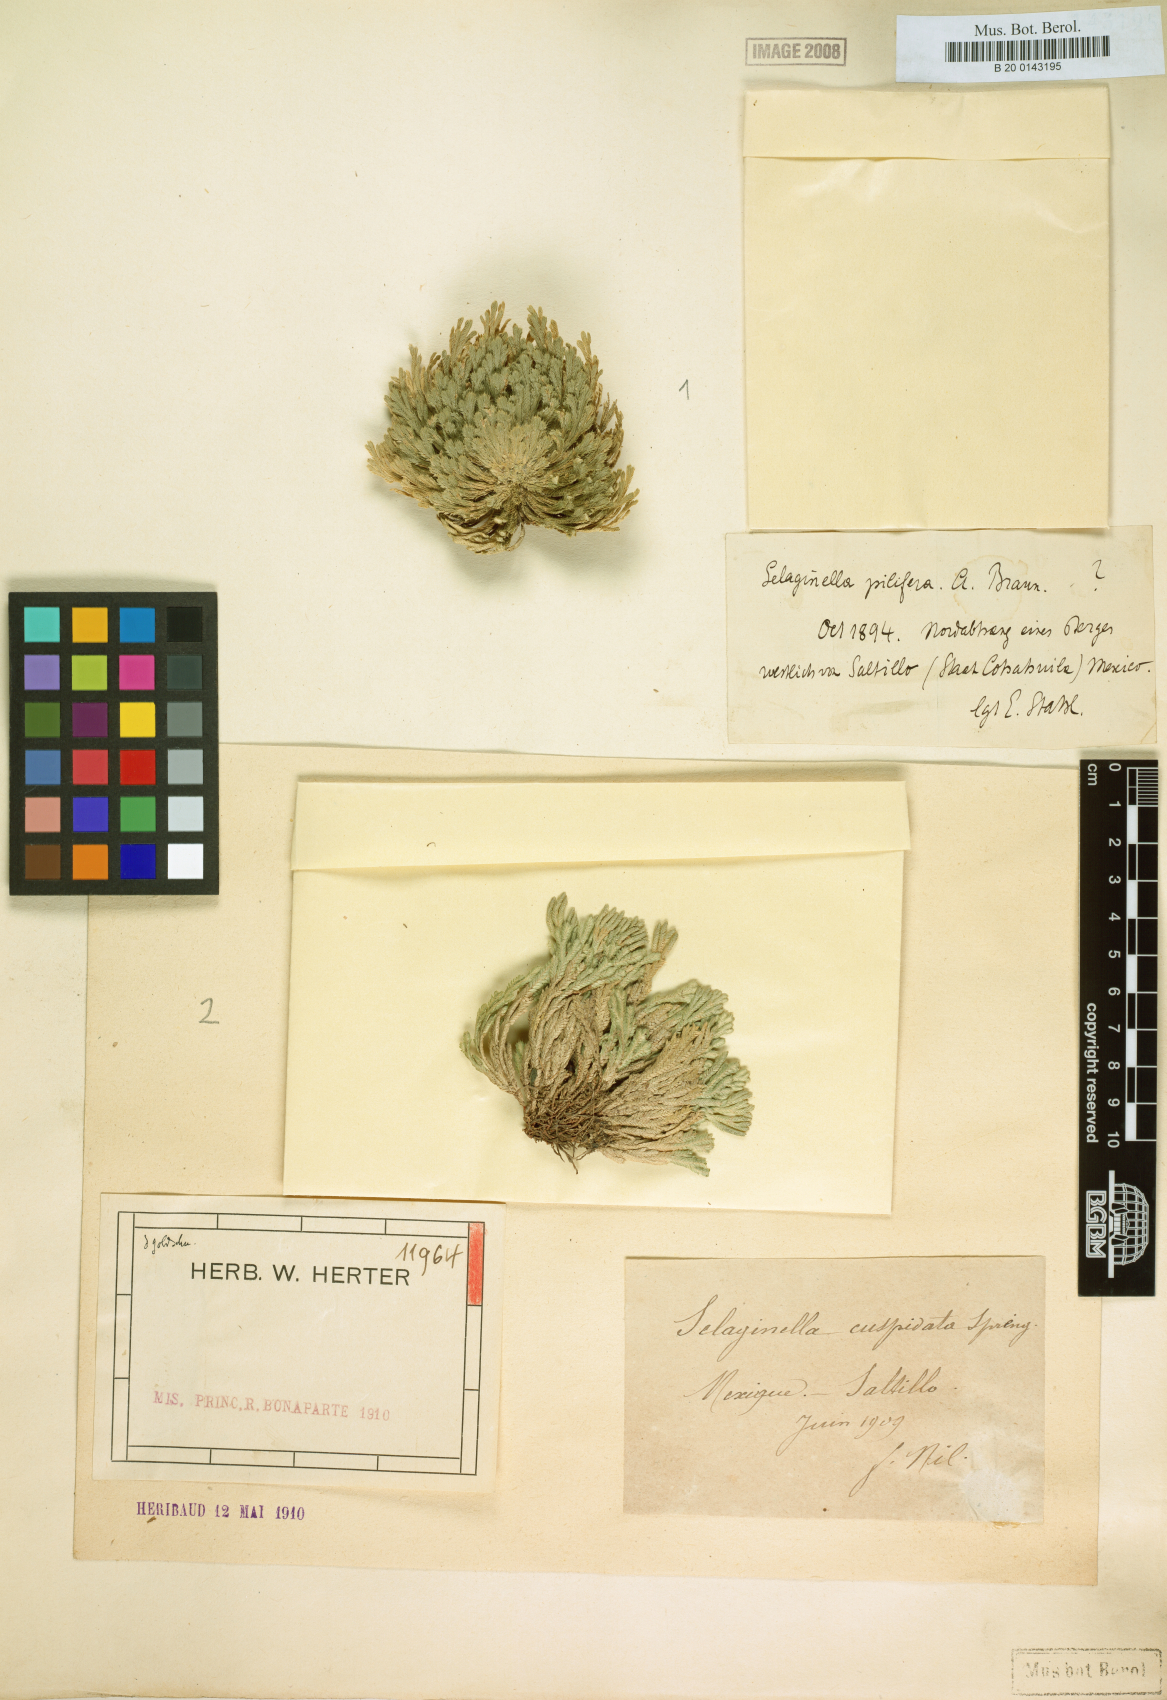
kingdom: Plantae
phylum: Tracheophyta
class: Lycopodiopsida
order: Selaginellales
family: Selaginellaceae
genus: Selaginella
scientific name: Selaginella pilifera
